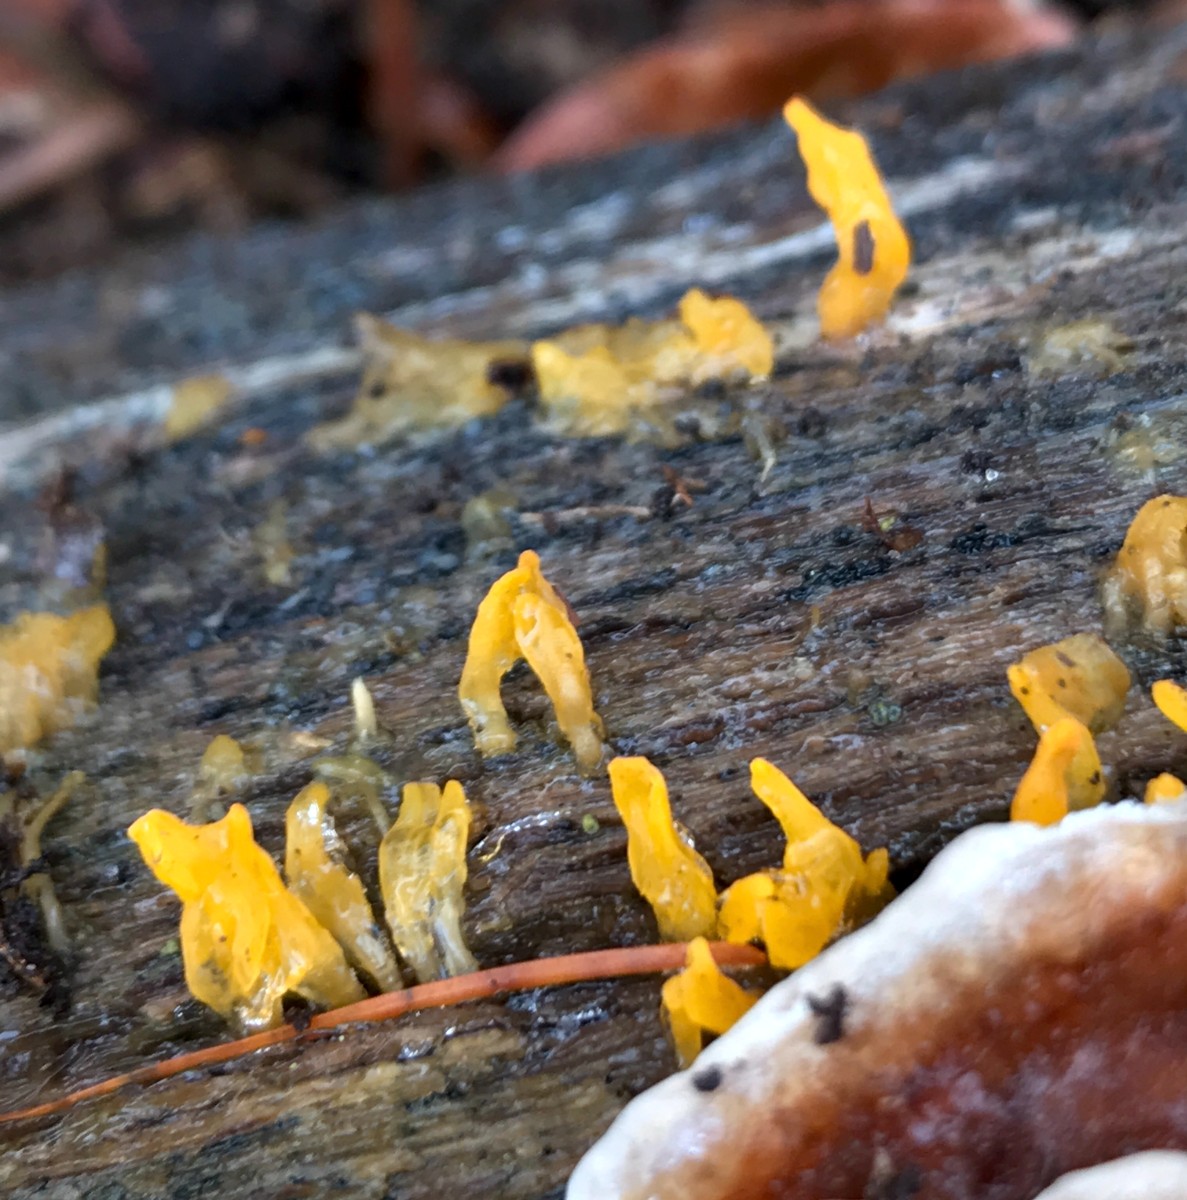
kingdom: Fungi
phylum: Basidiomycota
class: Dacrymycetes
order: Dacrymycetales
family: Dacrymycetaceae
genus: Calocera
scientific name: Calocera cornea
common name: liden guldgaffel
